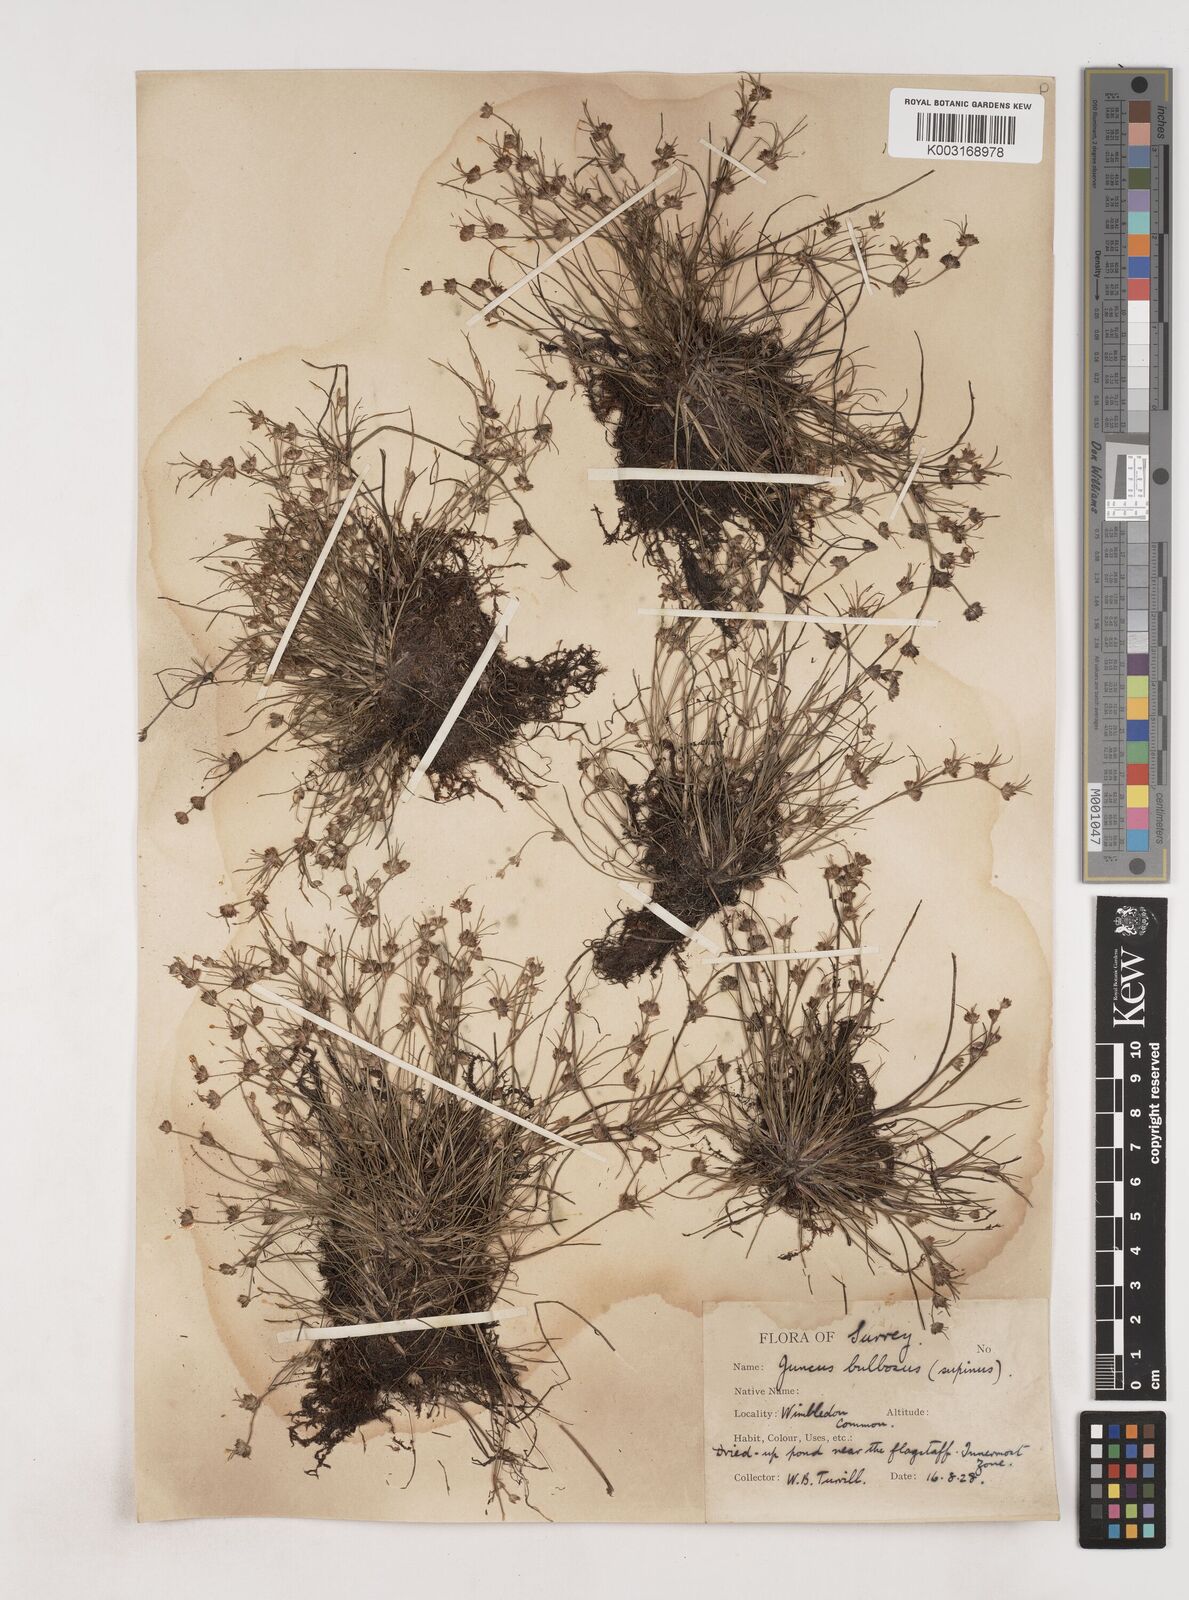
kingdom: Plantae
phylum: Tracheophyta
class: Liliopsida
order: Poales
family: Juncaceae
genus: Juncus
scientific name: Juncus bulbosus
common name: Bulbous rush
